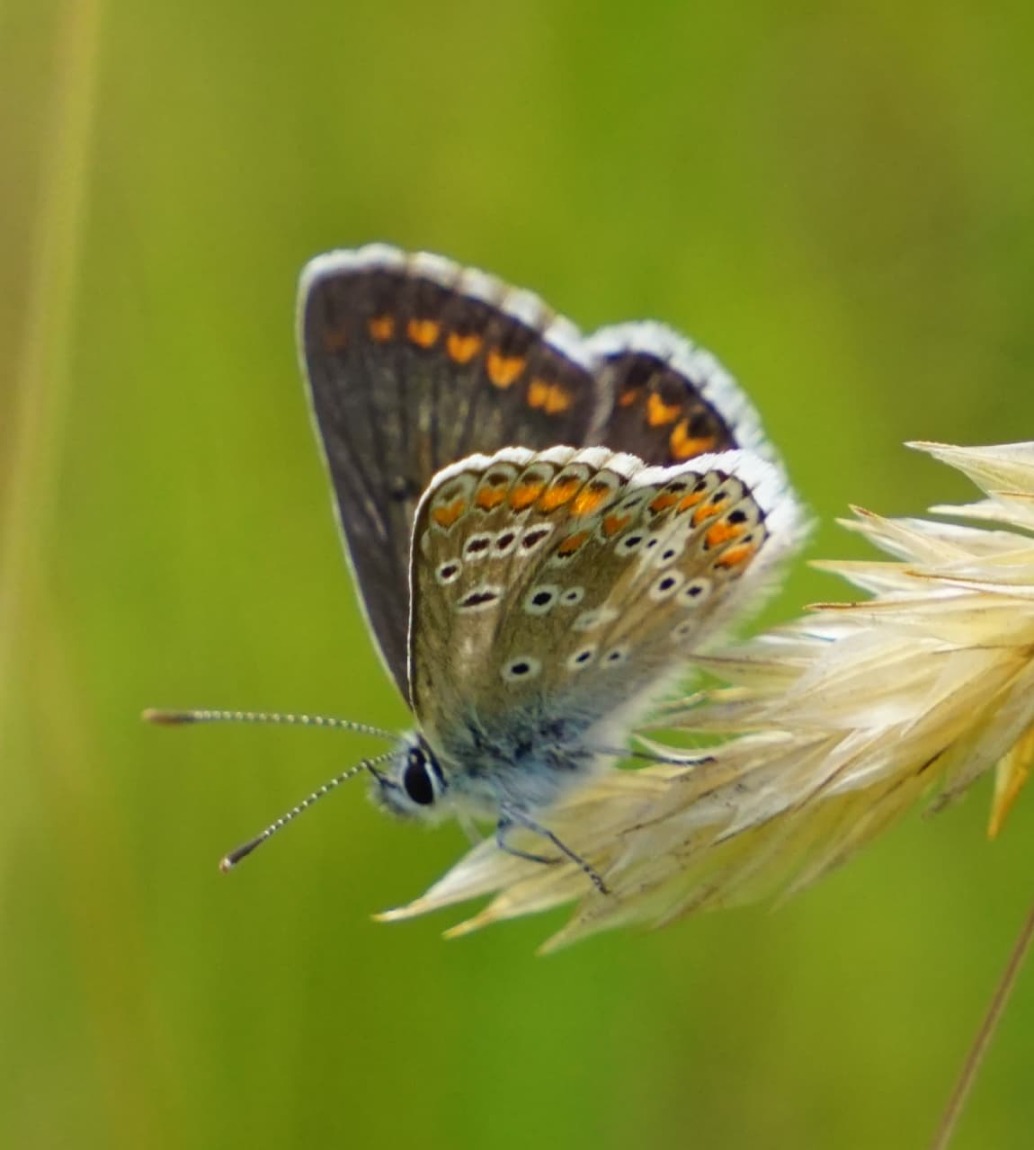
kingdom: Animalia
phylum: Arthropoda
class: Insecta
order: Lepidoptera
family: Lycaenidae
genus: Aricia
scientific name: Aricia agestis
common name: Rødplettet blåfugl
